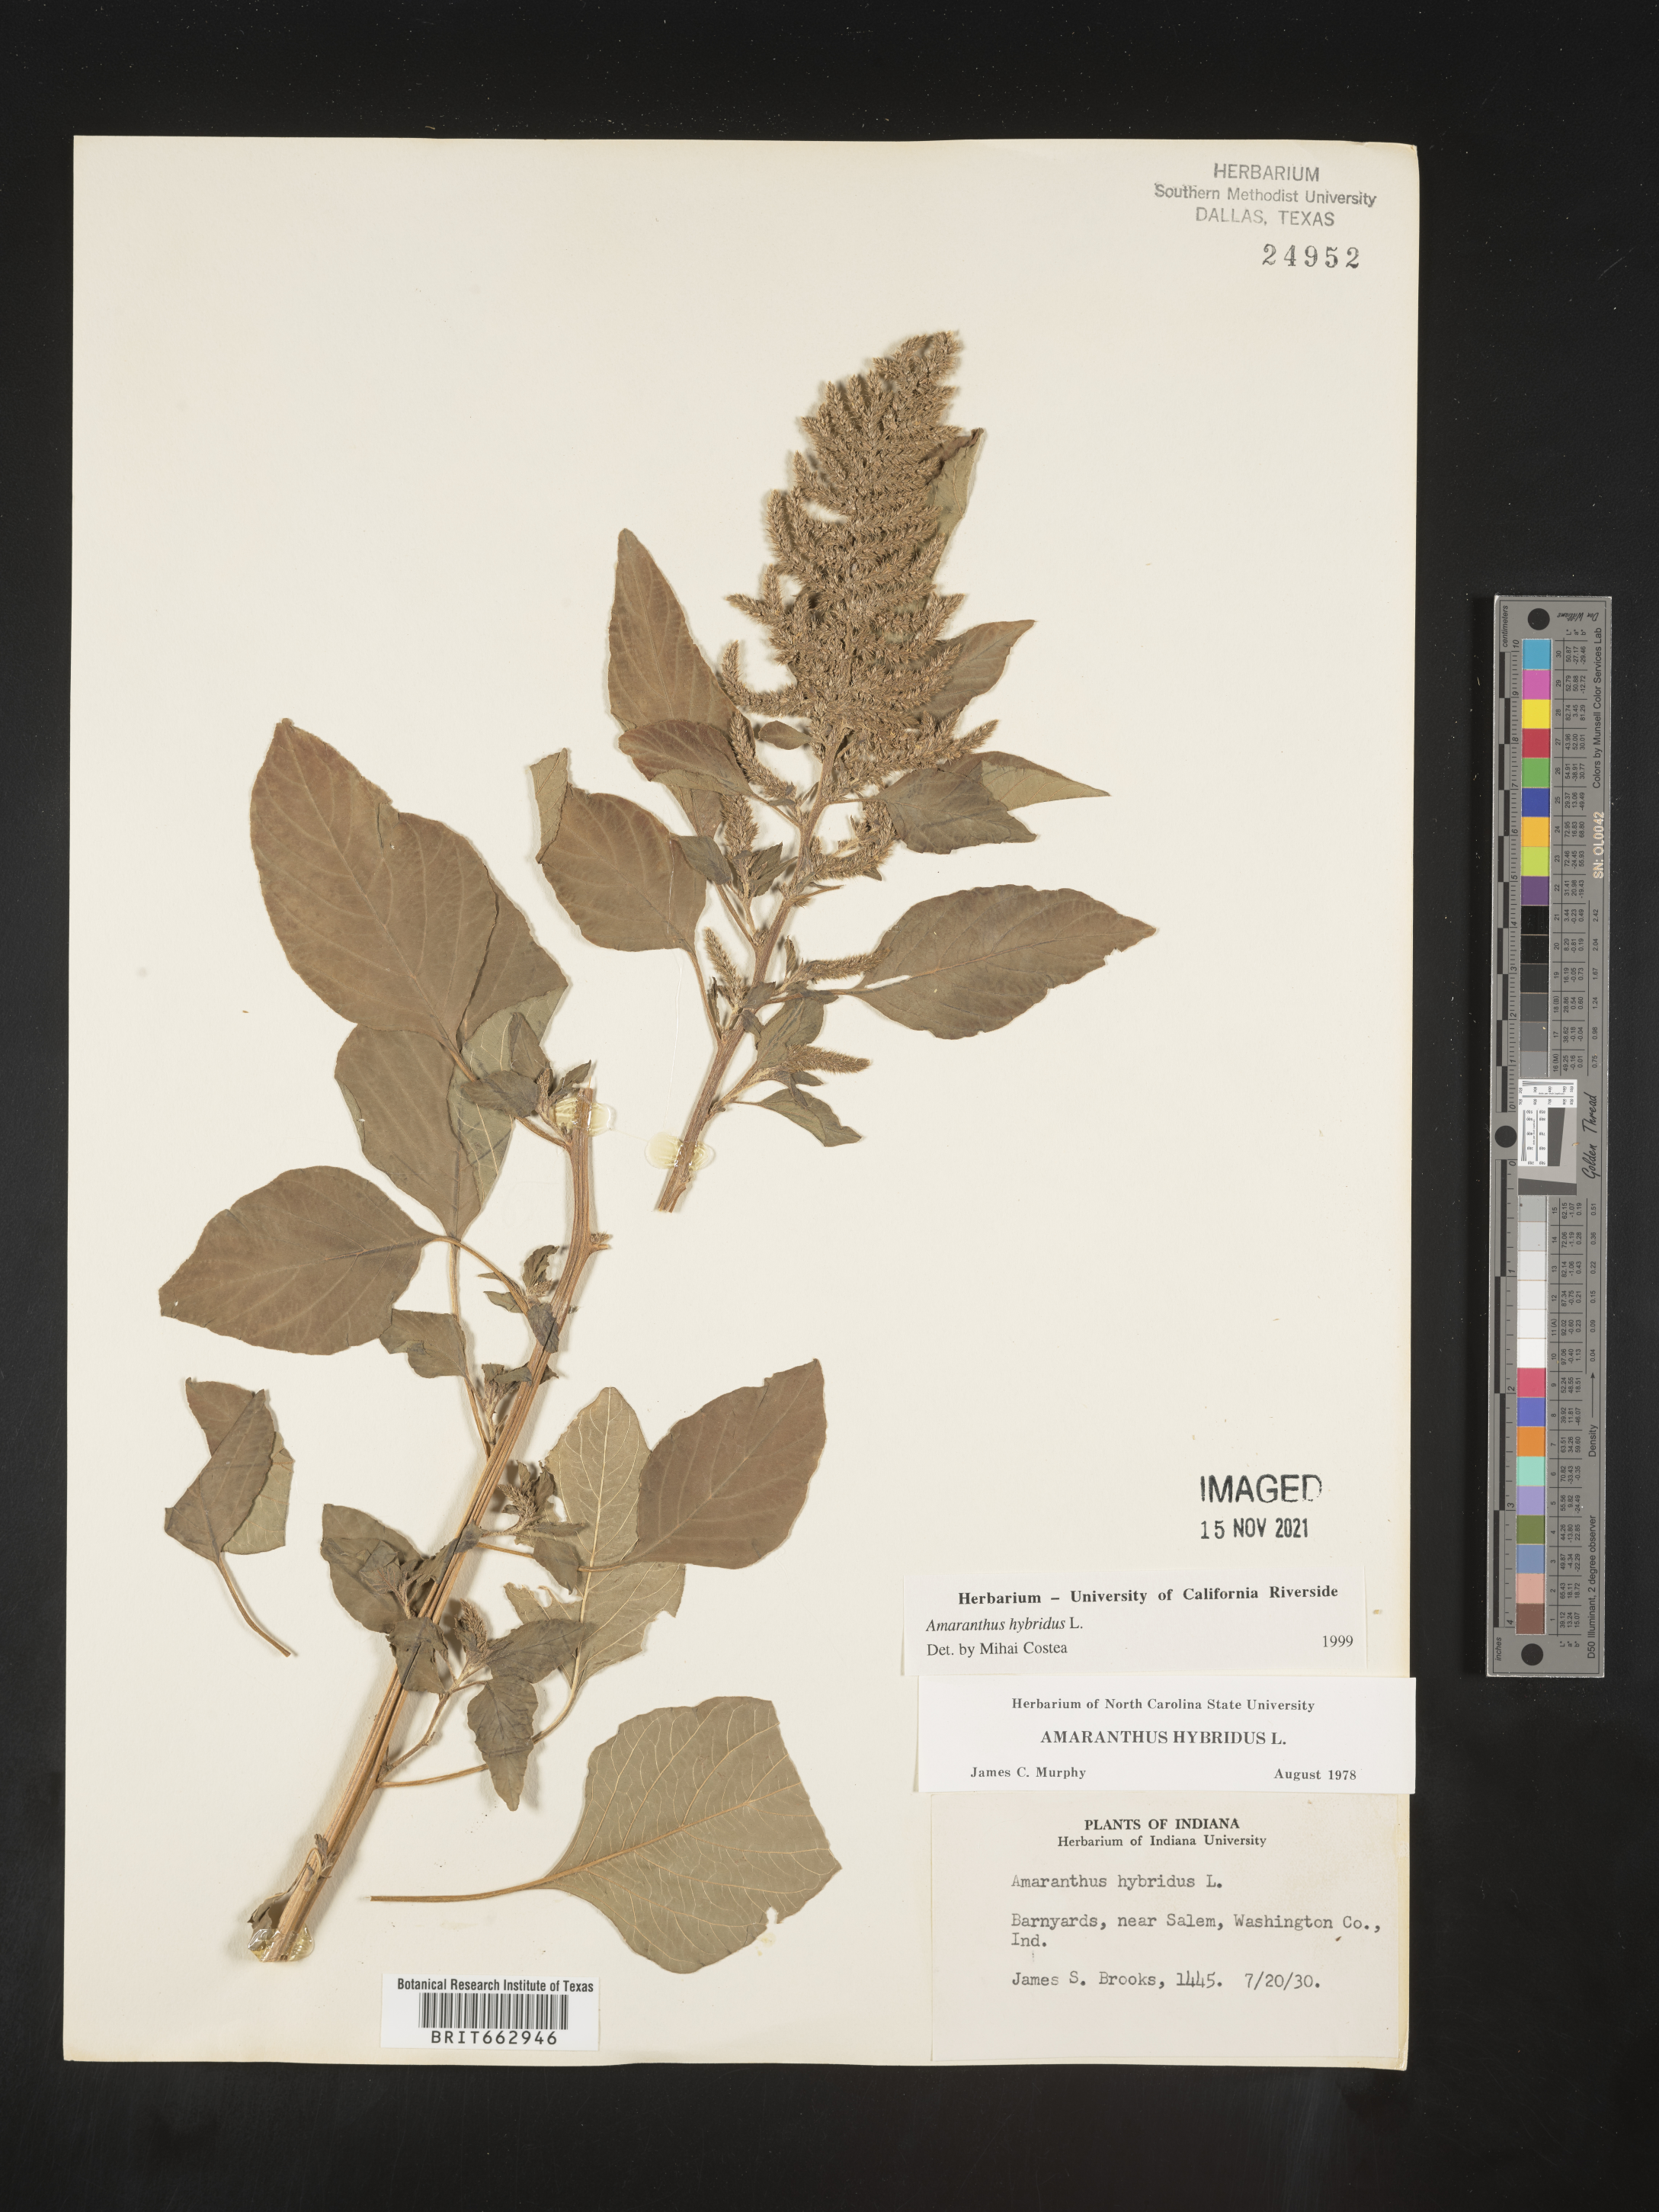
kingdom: Plantae
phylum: Tracheophyta
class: Magnoliopsida
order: Caryophyllales
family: Amaranthaceae
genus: Amaranthus
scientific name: Amaranthus hybridus
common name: Green amaranth
